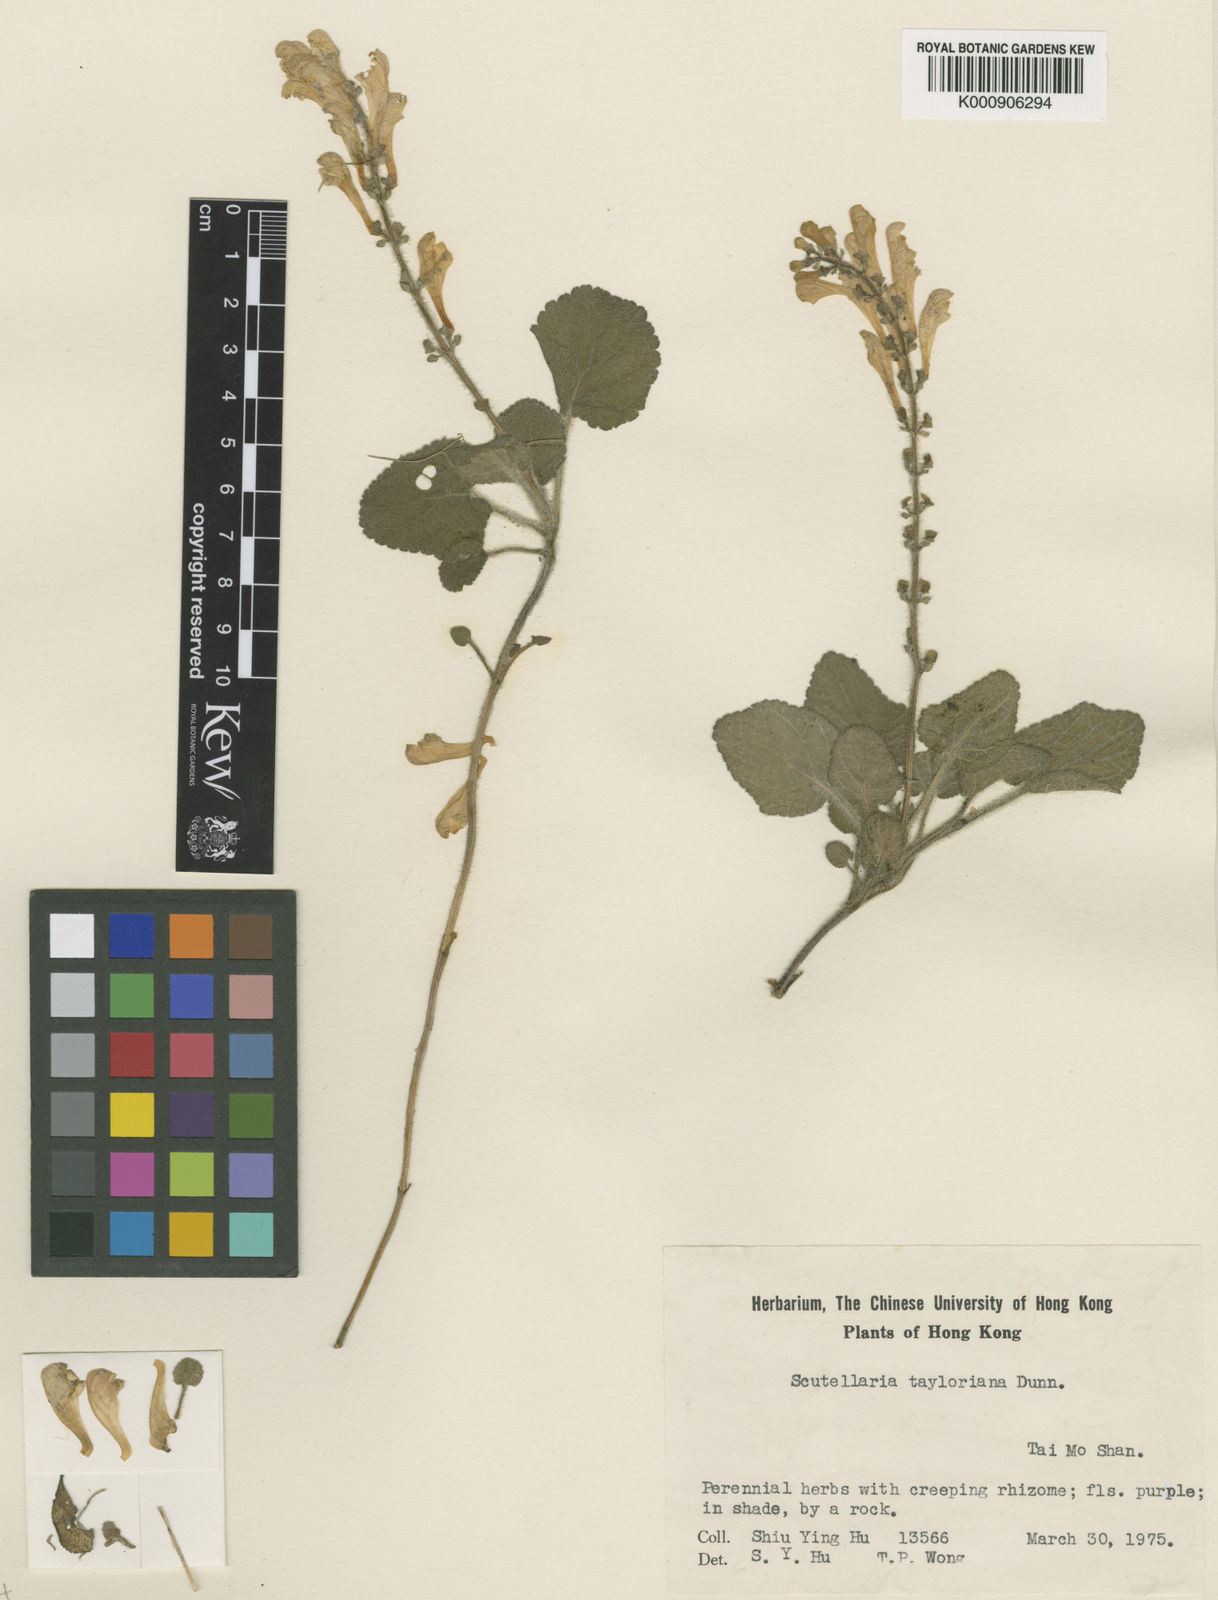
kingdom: Plantae
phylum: Tracheophyta
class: Magnoliopsida
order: Lamiales
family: Lamiaceae
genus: Scutellaria
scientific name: Scutellaria tayloriana
